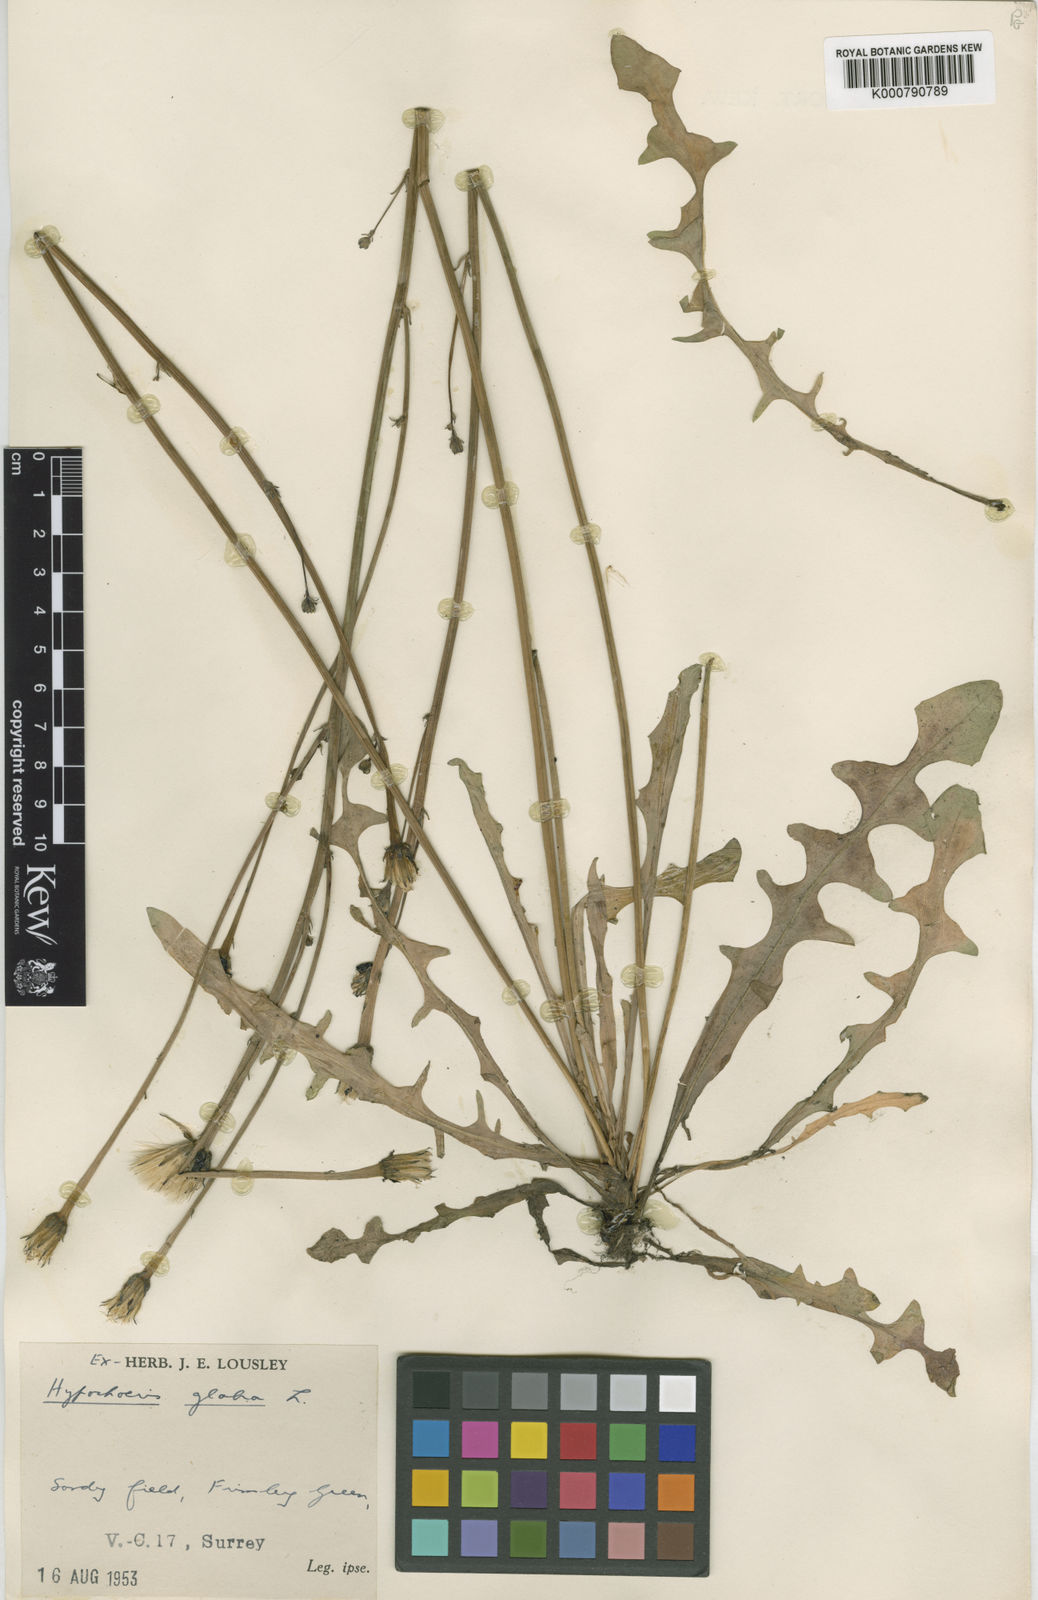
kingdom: Plantae
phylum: Tracheophyta
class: Magnoliopsida
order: Asterales
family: Asteraceae
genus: Hypochaeris
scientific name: Hypochaeris glabra
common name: Smooth catsear
